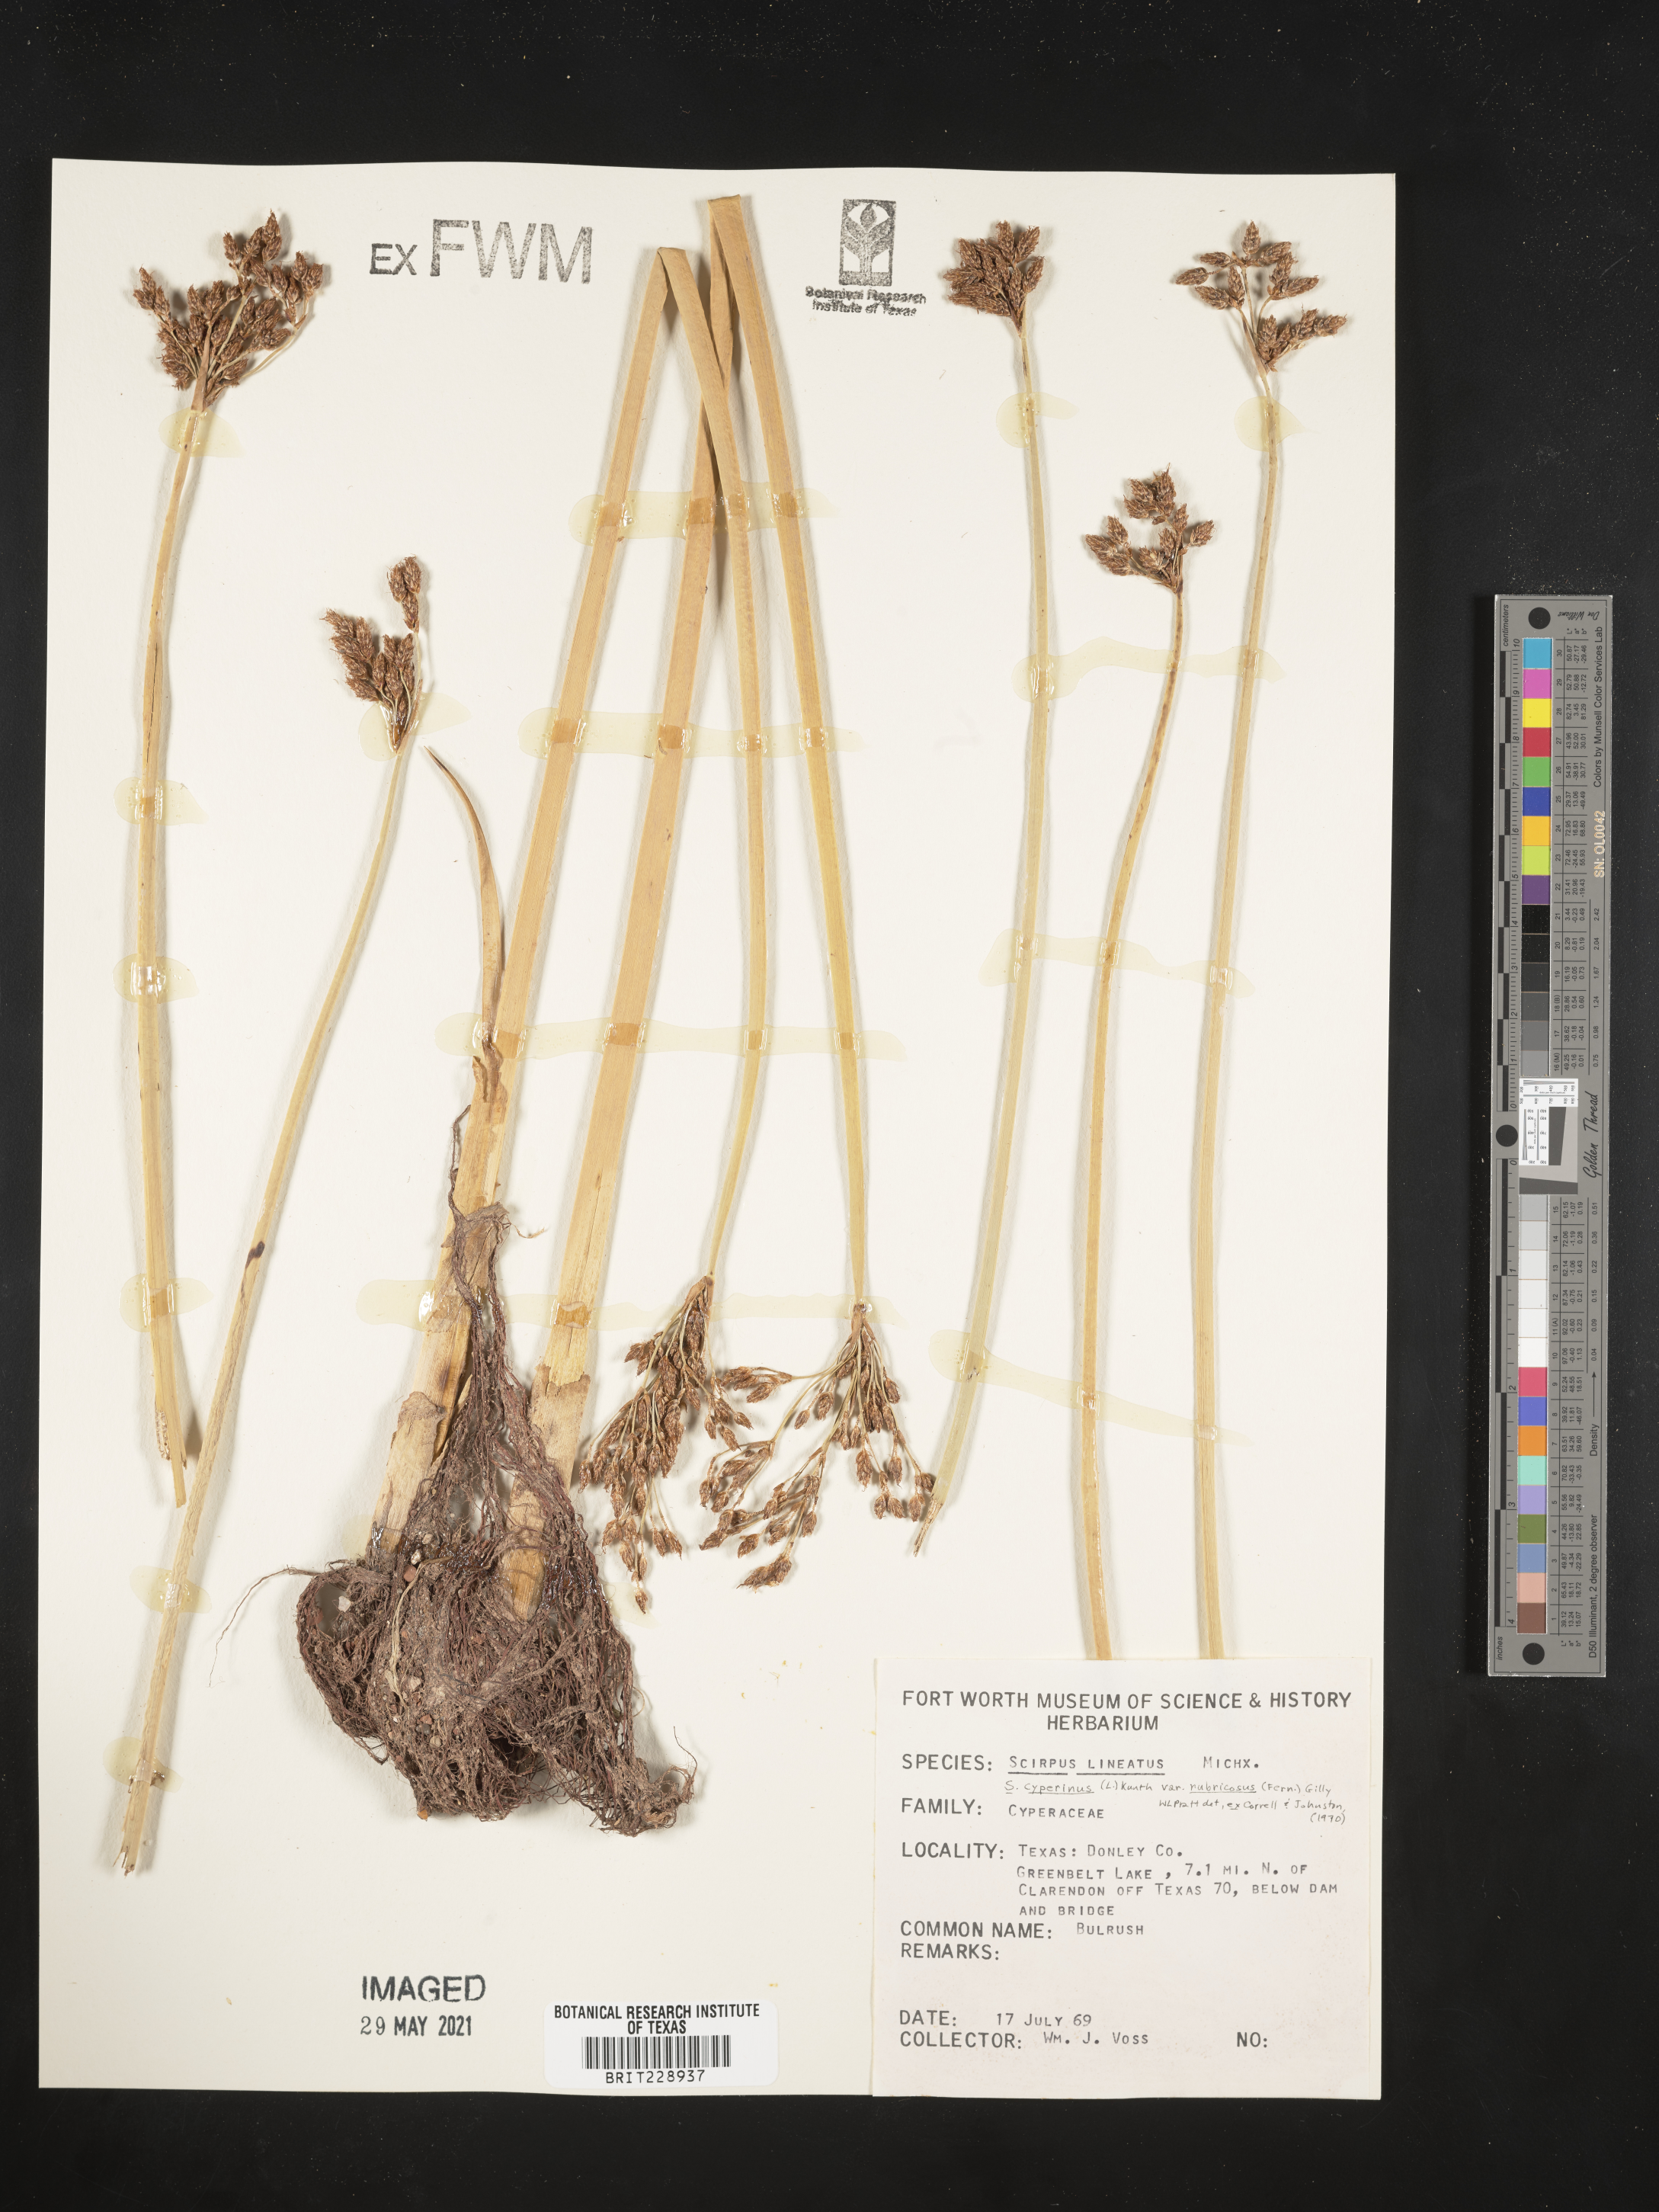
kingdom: Plantae
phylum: Tracheophyta
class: Liliopsida
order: Poales
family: Cyperaceae
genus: Scirpus
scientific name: Scirpus cyperinus
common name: Black-sheathed bulrush
